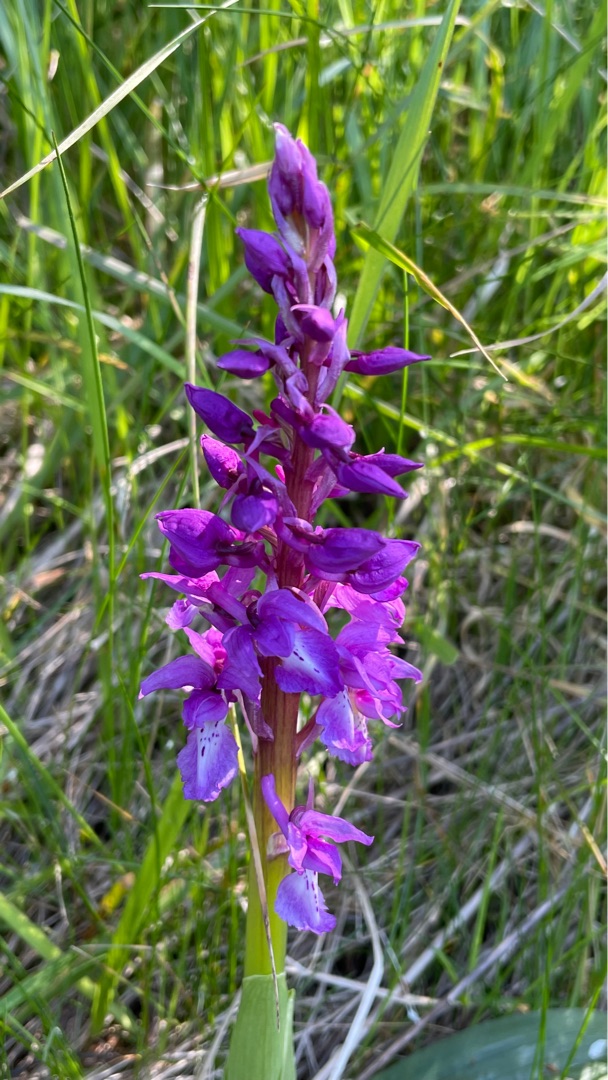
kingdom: Plantae
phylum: Tracheophyta
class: Liliopsida
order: Asparagales
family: Orchidaceae
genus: Orchis
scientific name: Orchis mascula
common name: Tyndakset gøgeurt
